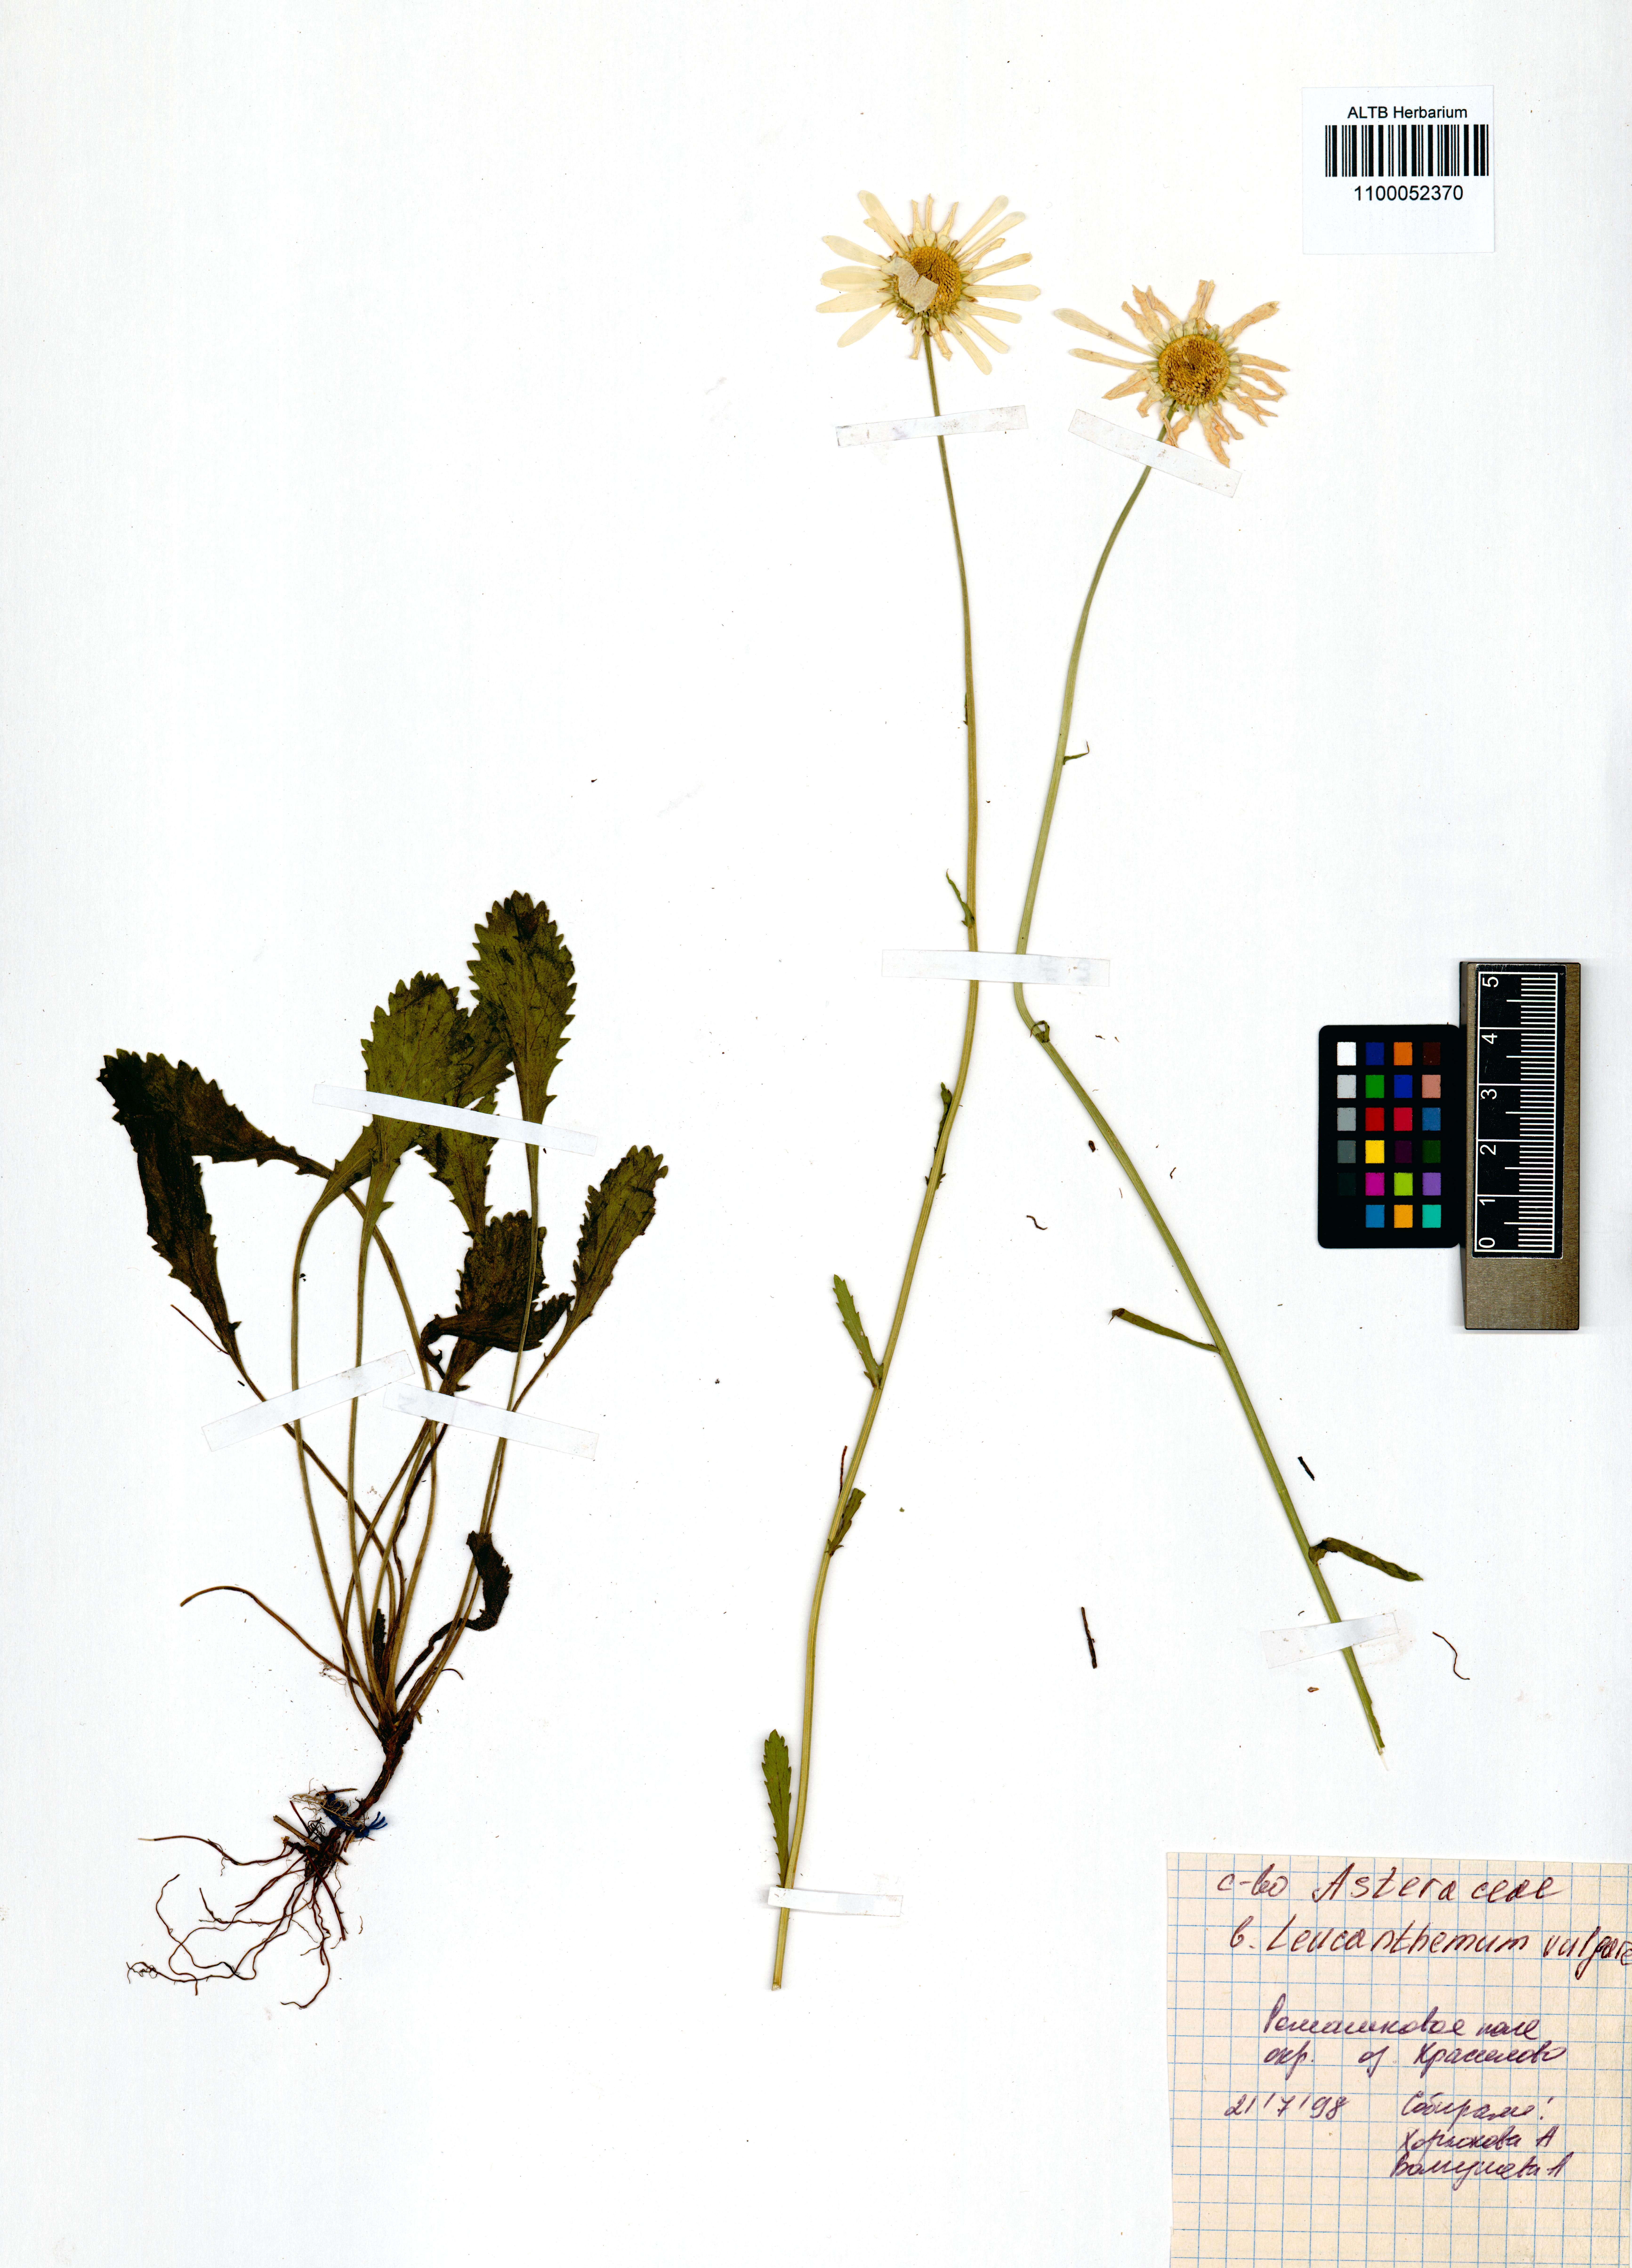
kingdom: Plantae
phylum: Tracheophyta
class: Magnoliopsida
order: Asterales
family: Asteraceae
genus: Leucanthemum
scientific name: Leucanthemum vulgare
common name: Oxeye daisy
